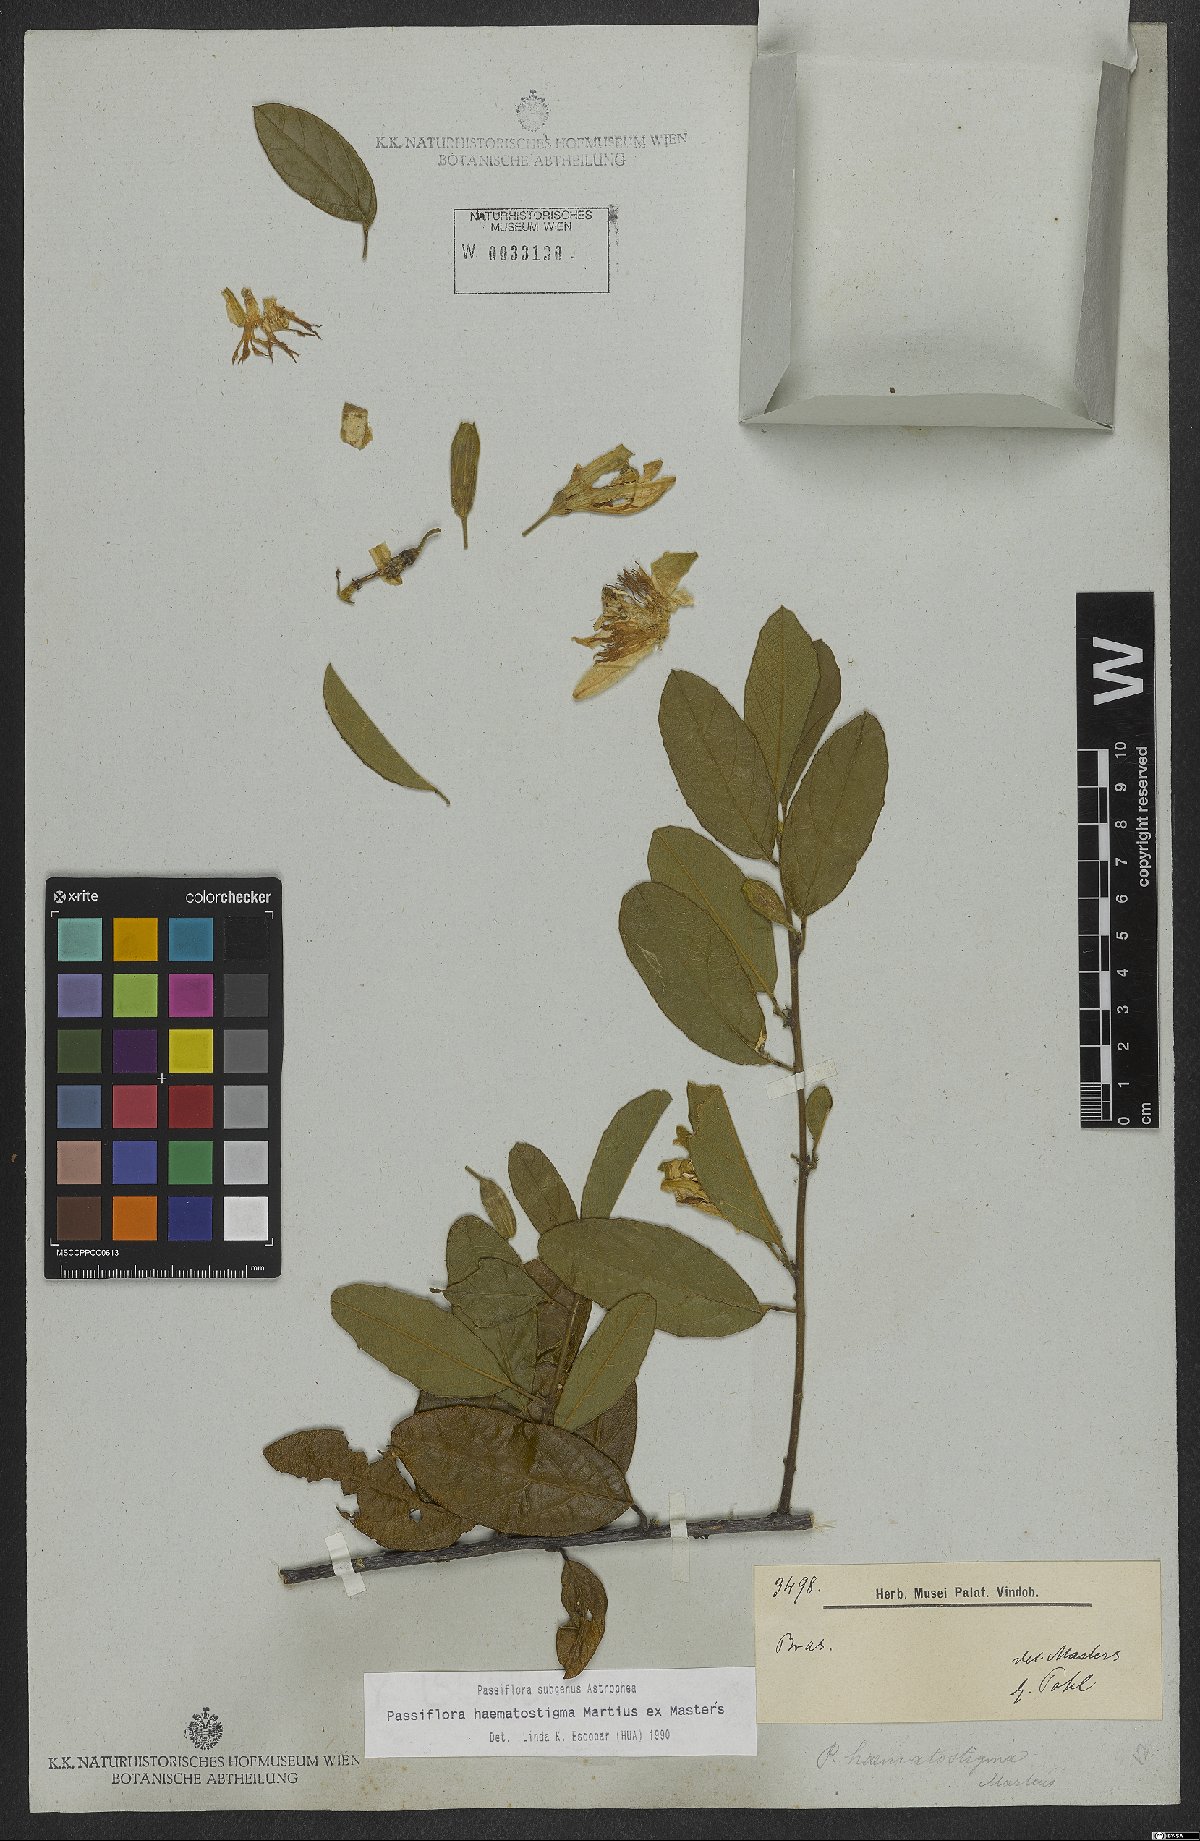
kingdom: Plantae
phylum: Tracheophyta
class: Magnoliopsida
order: Malpighiales
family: Passifloraceae
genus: Passiflora
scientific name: Passiflora haematostigma
